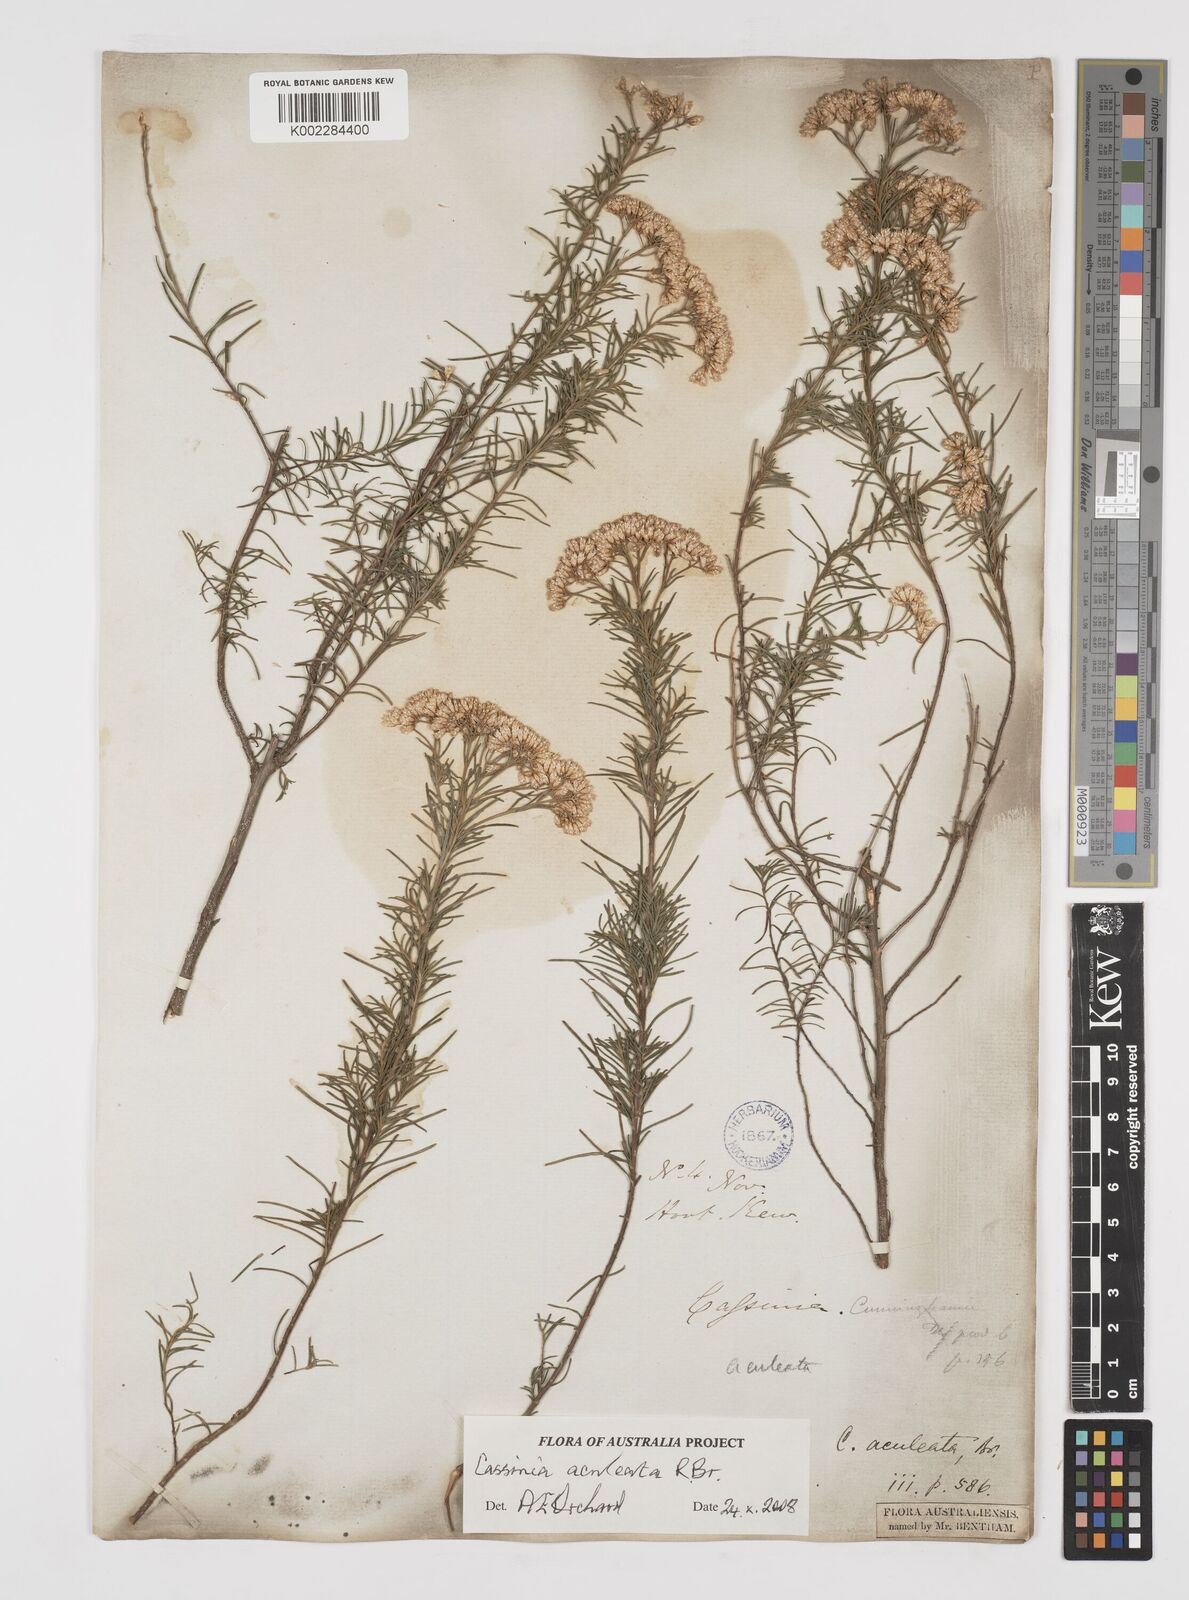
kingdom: Plantae
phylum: Tracheophyta
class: Magnoliopsida
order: Asterales
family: Asteraceae
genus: Cassinia
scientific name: Cassinia aculeata
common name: Australian tauhinu
